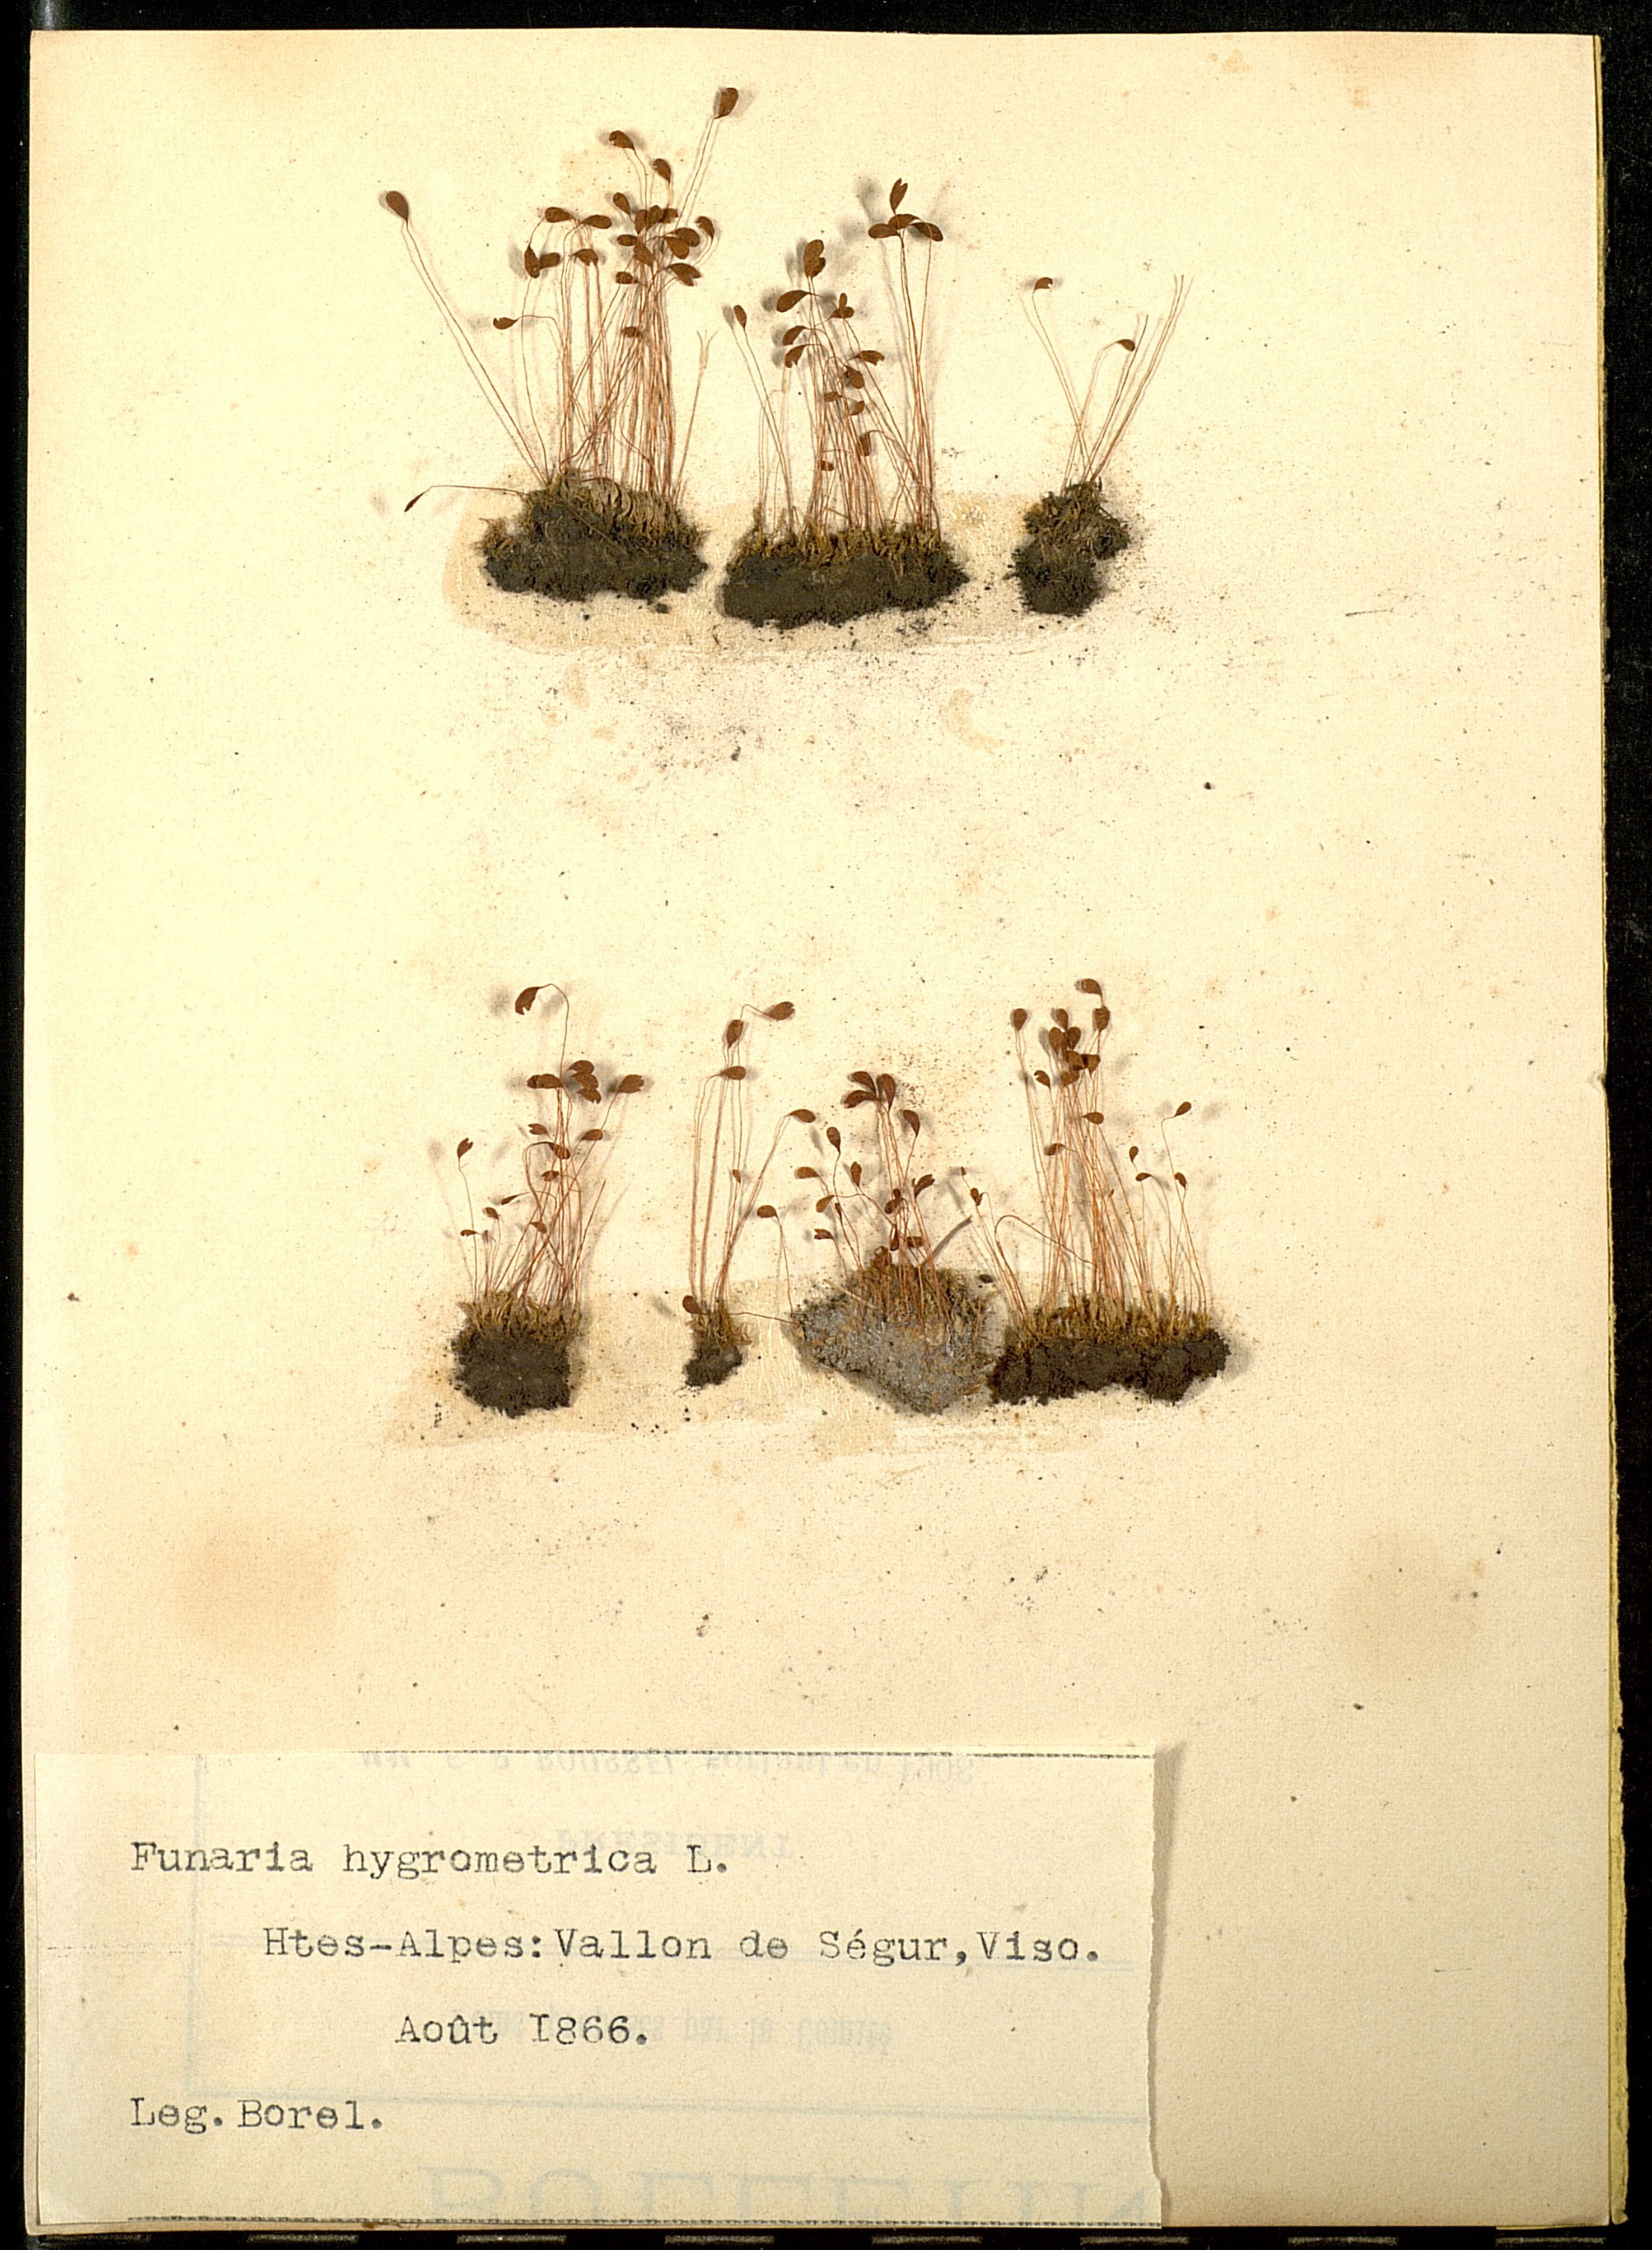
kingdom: Plantae
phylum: Bryophyta
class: Bryopsida
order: Funariales
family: Funariaceae
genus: Funaria
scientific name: Funaria hygrometrica
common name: Common cord moss
